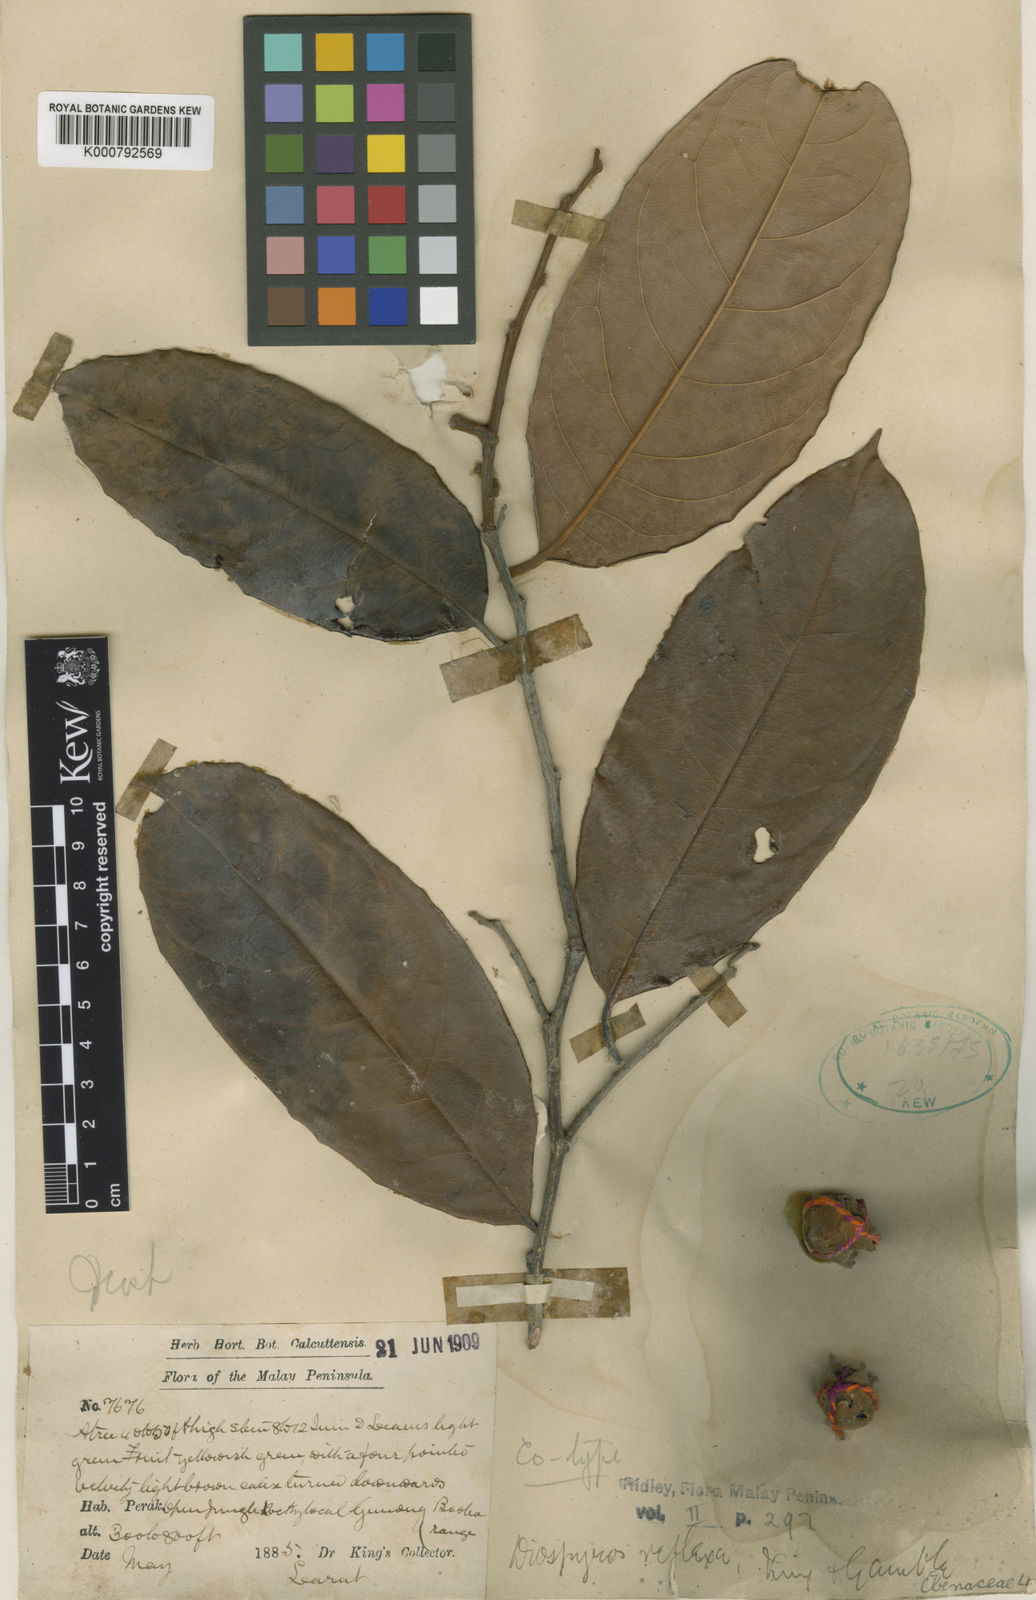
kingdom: Plantae
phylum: Tracheophyta
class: Magnoliopsida
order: Ericales
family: Ebenaceae
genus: Diospyros
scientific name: Diospyros pyrrhocarpa
